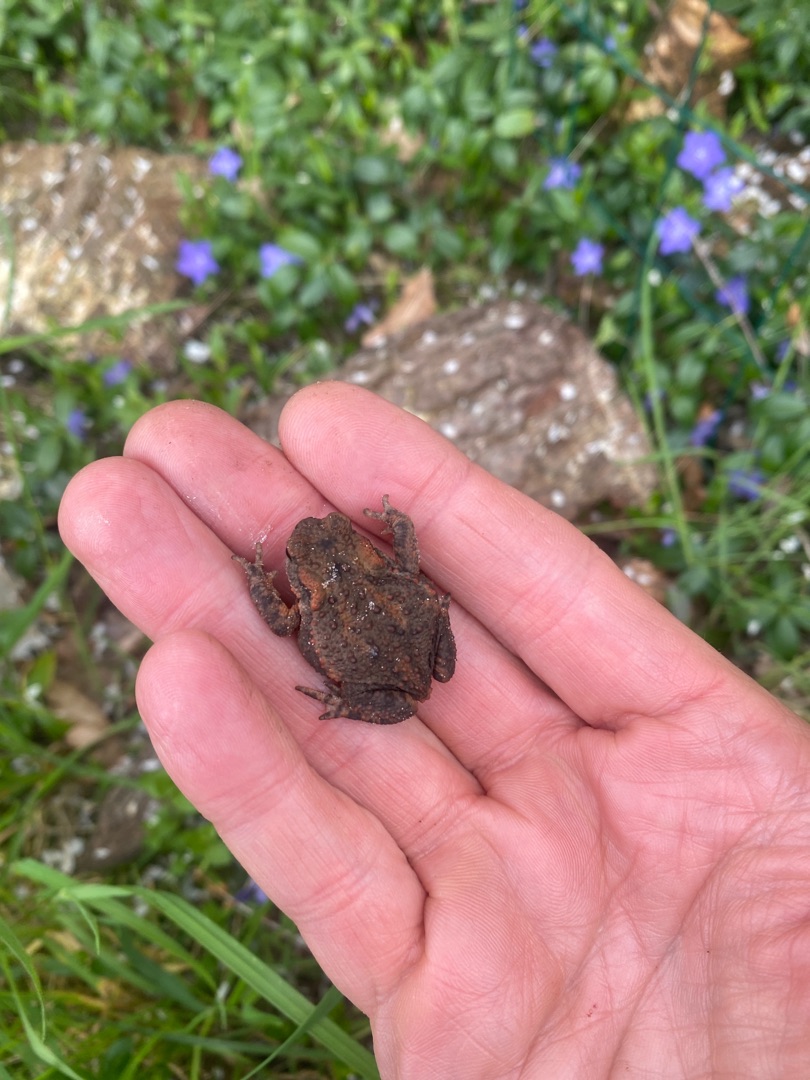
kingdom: Animalia
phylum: Chordata
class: Amphibia
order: Anura
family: Bufonidae
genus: Bufo
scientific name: Bufo bufo
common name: Skrubtudse
